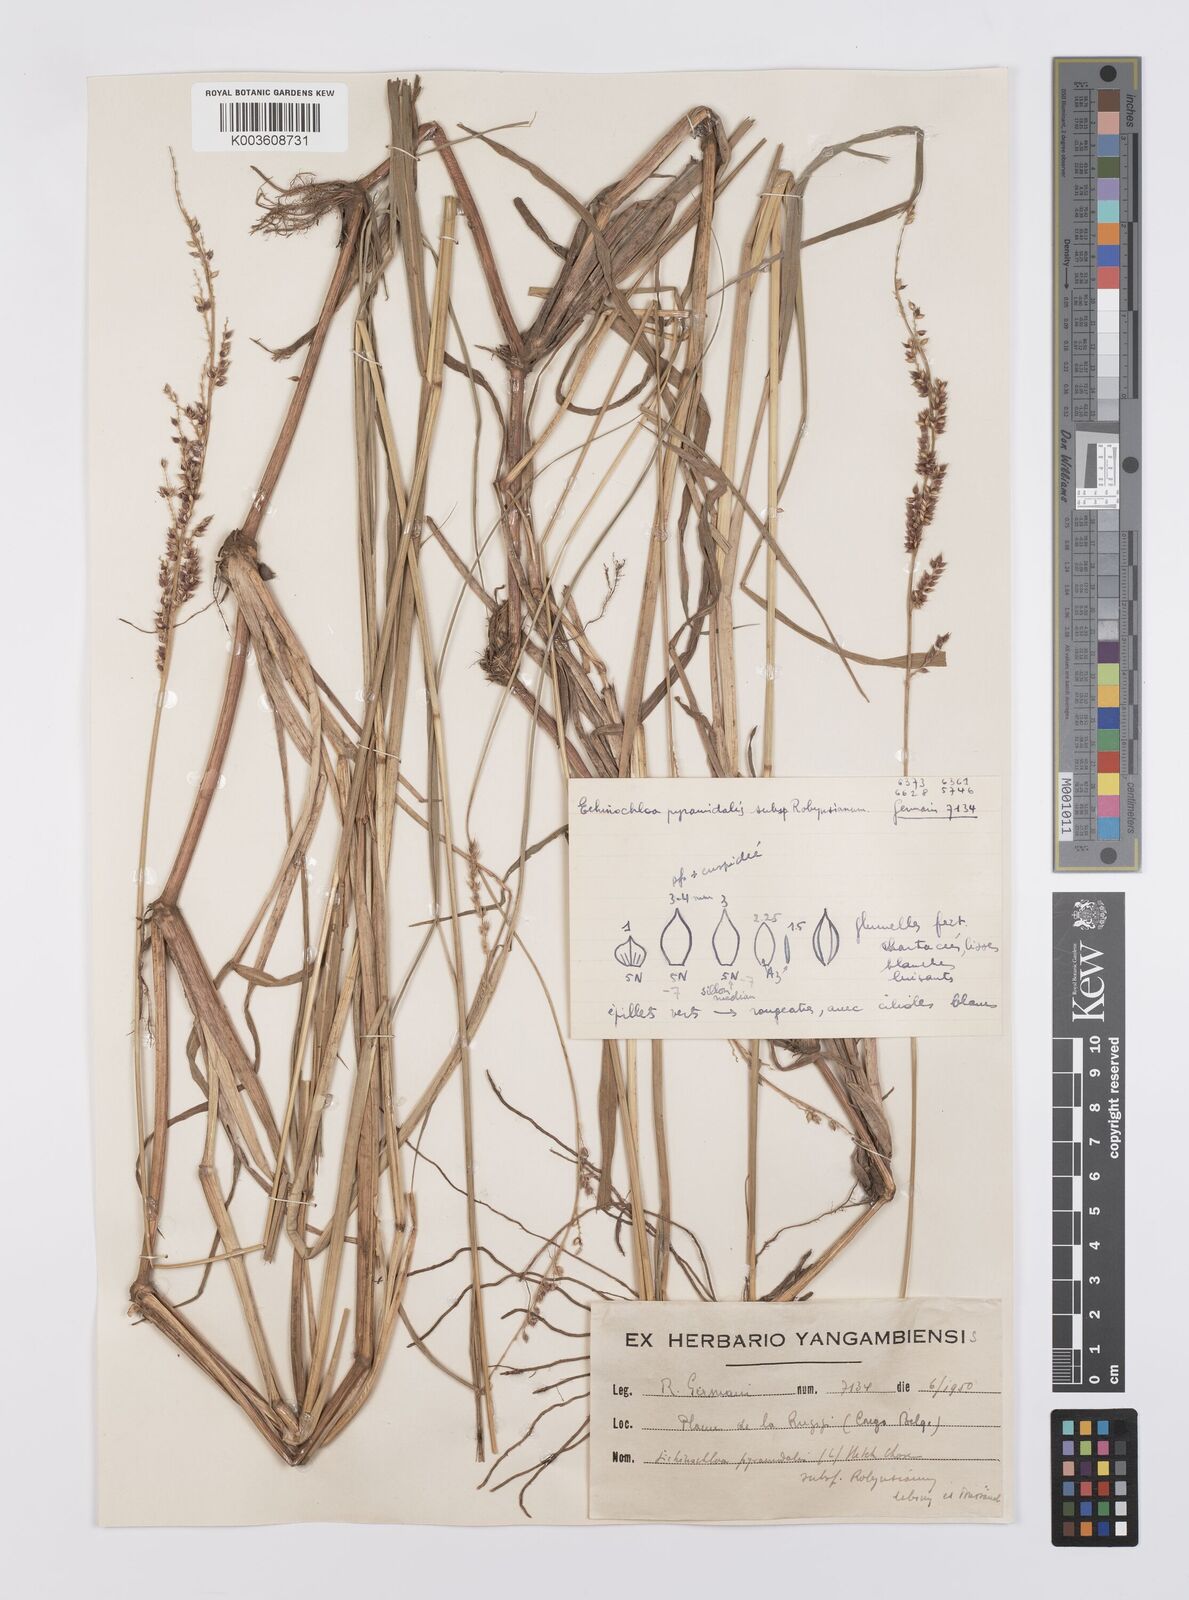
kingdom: Plantae
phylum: Tracheophyta
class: Liliopsida
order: Poales
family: Poaceae
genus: Echinochloa
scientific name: Echinochloa pyramidalis
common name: Antelope grass
